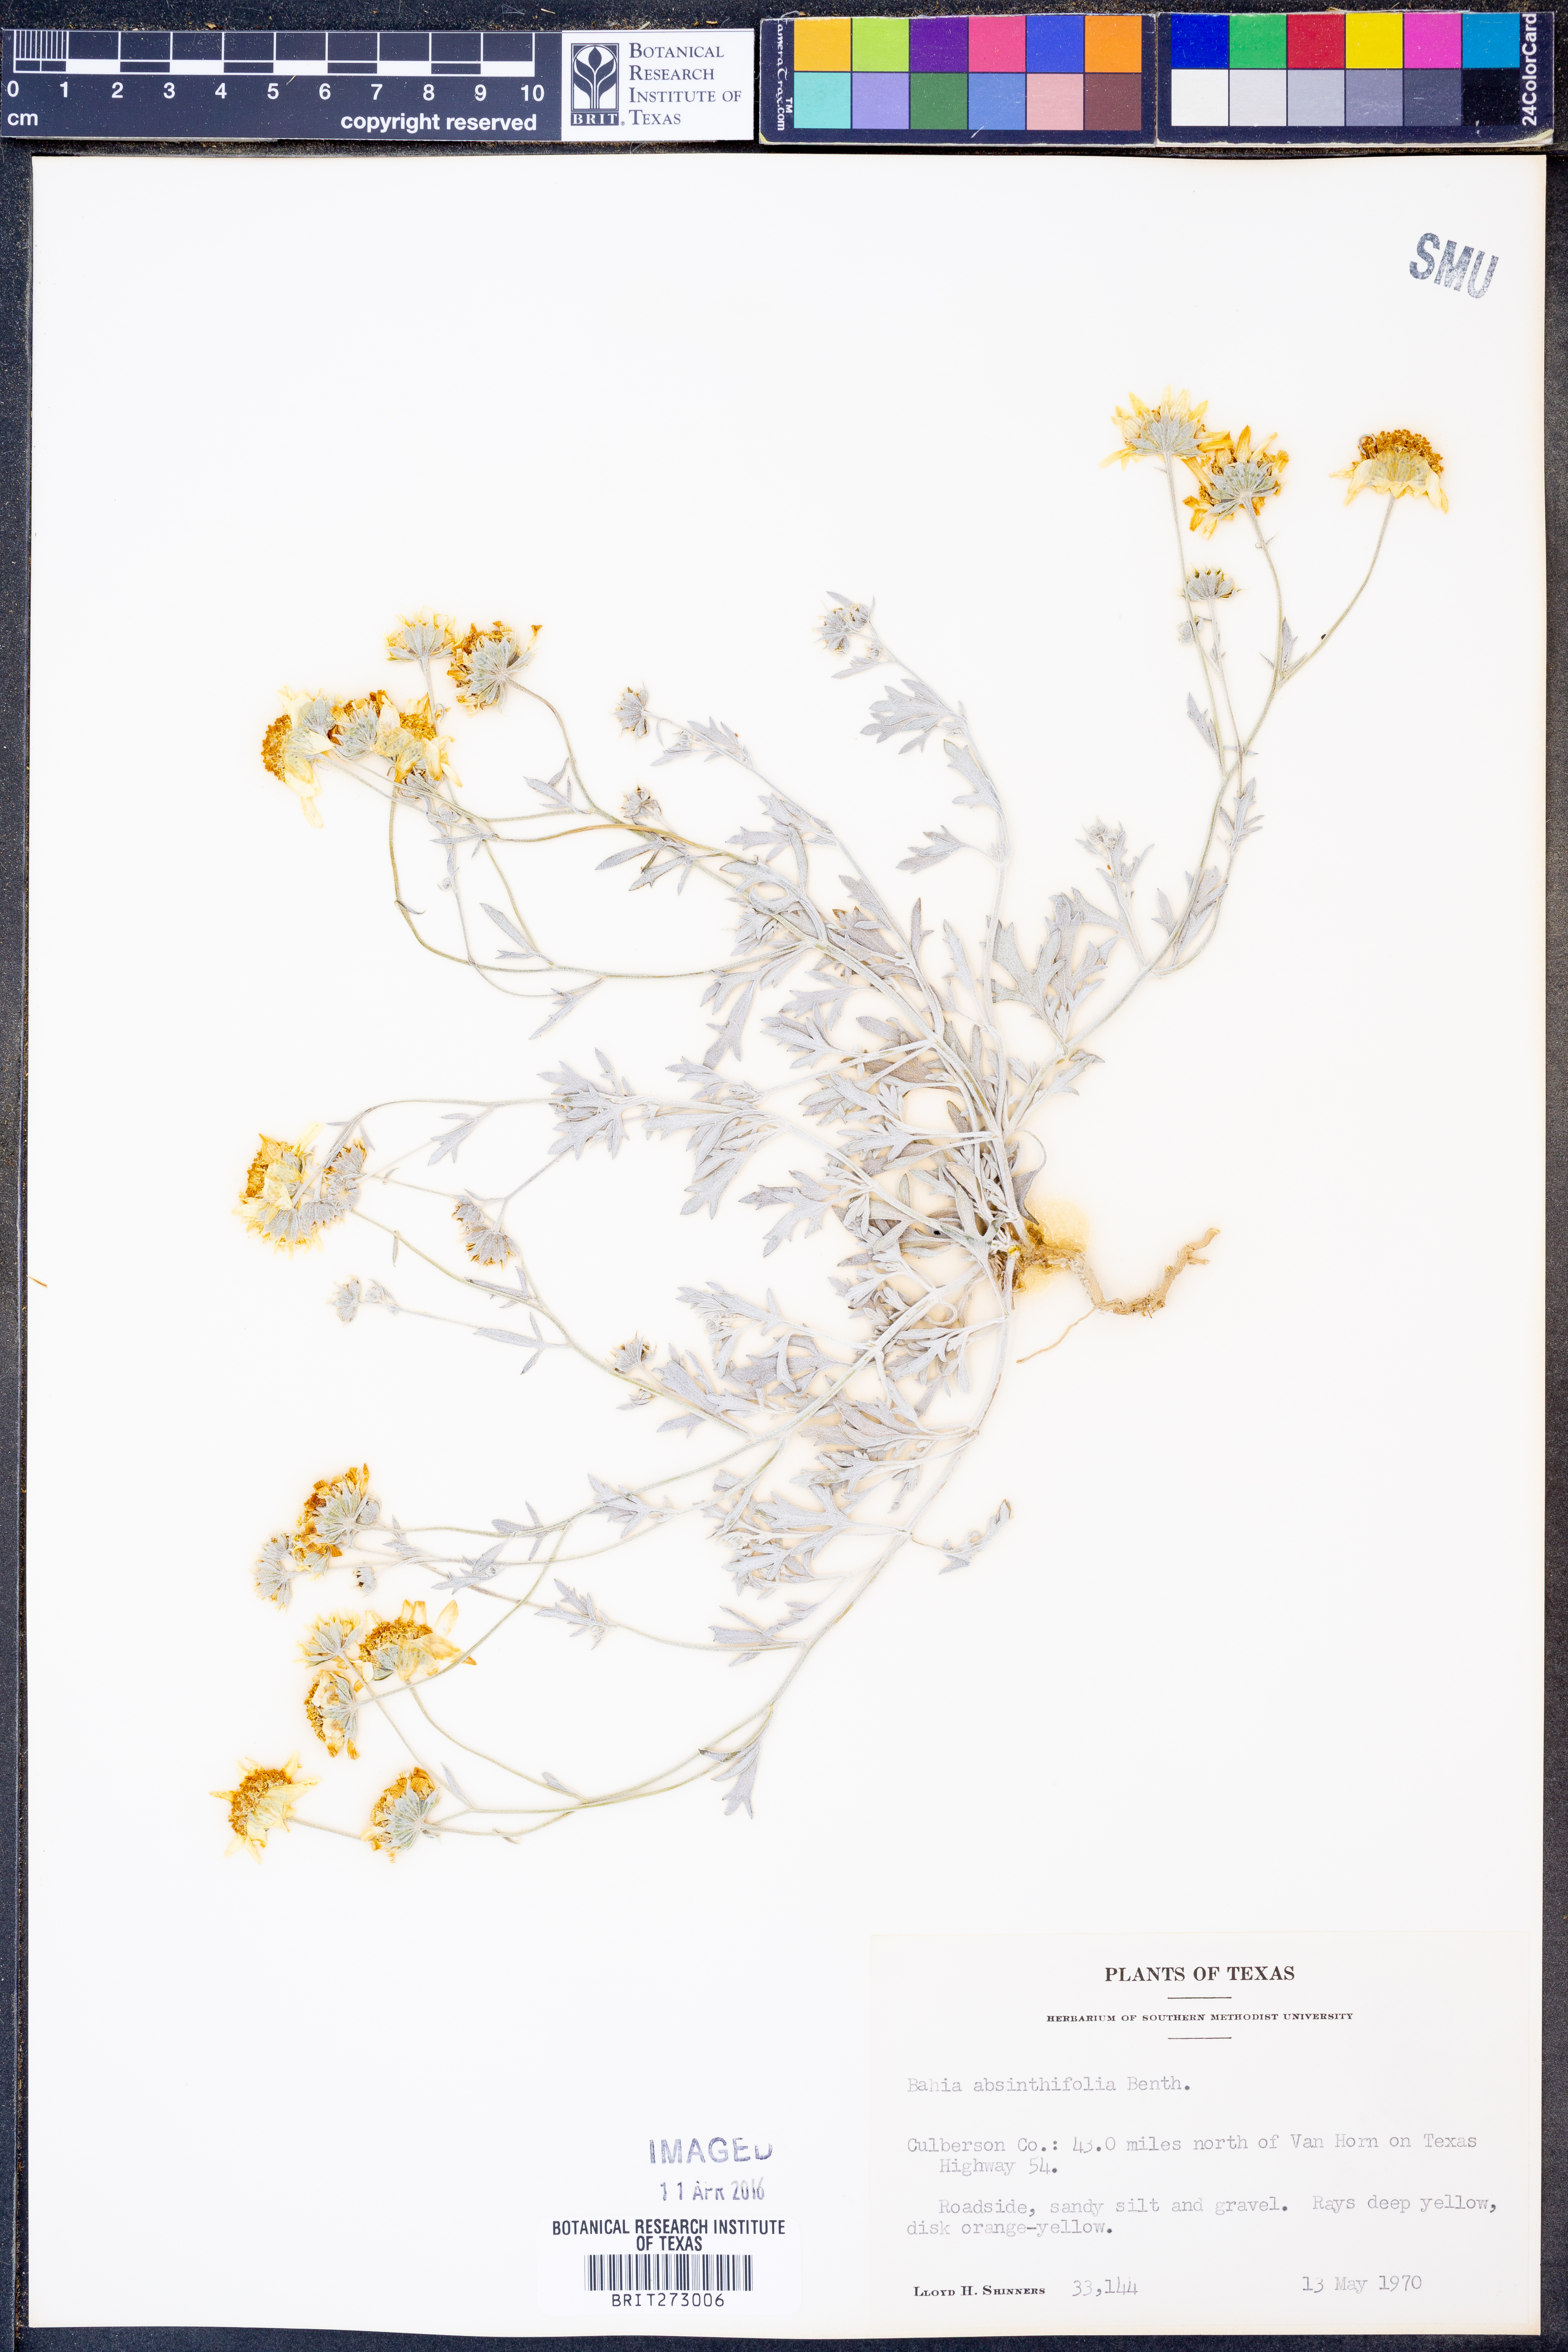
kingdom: Plantae
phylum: Tracheophyta
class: Magnoliopsida
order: Asterales
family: Asteraceae
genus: Picradeniopsis
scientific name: Picradeniopsis absinthifolia
